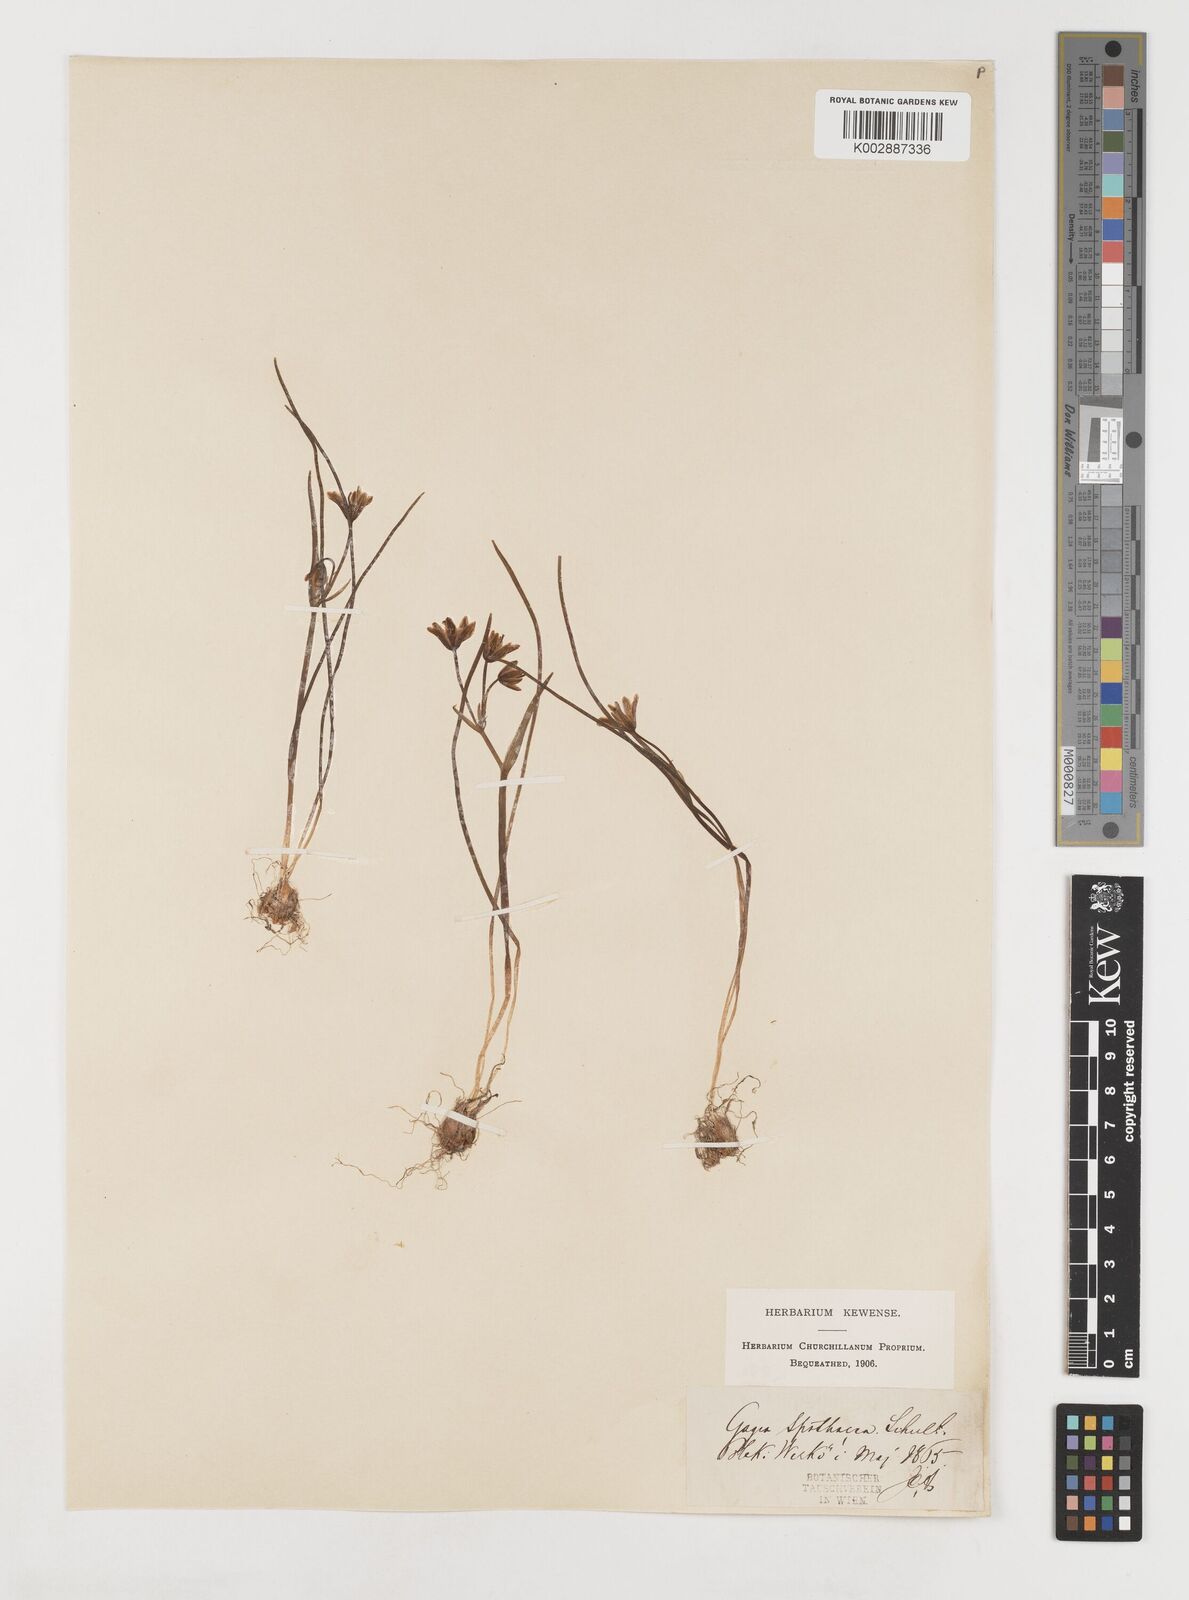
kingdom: Plantae
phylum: Tracheophyta
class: Liliopsida
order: Liliales
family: Liliaceae
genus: Gagea
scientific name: Gagea spathacea
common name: Belgian gagea
